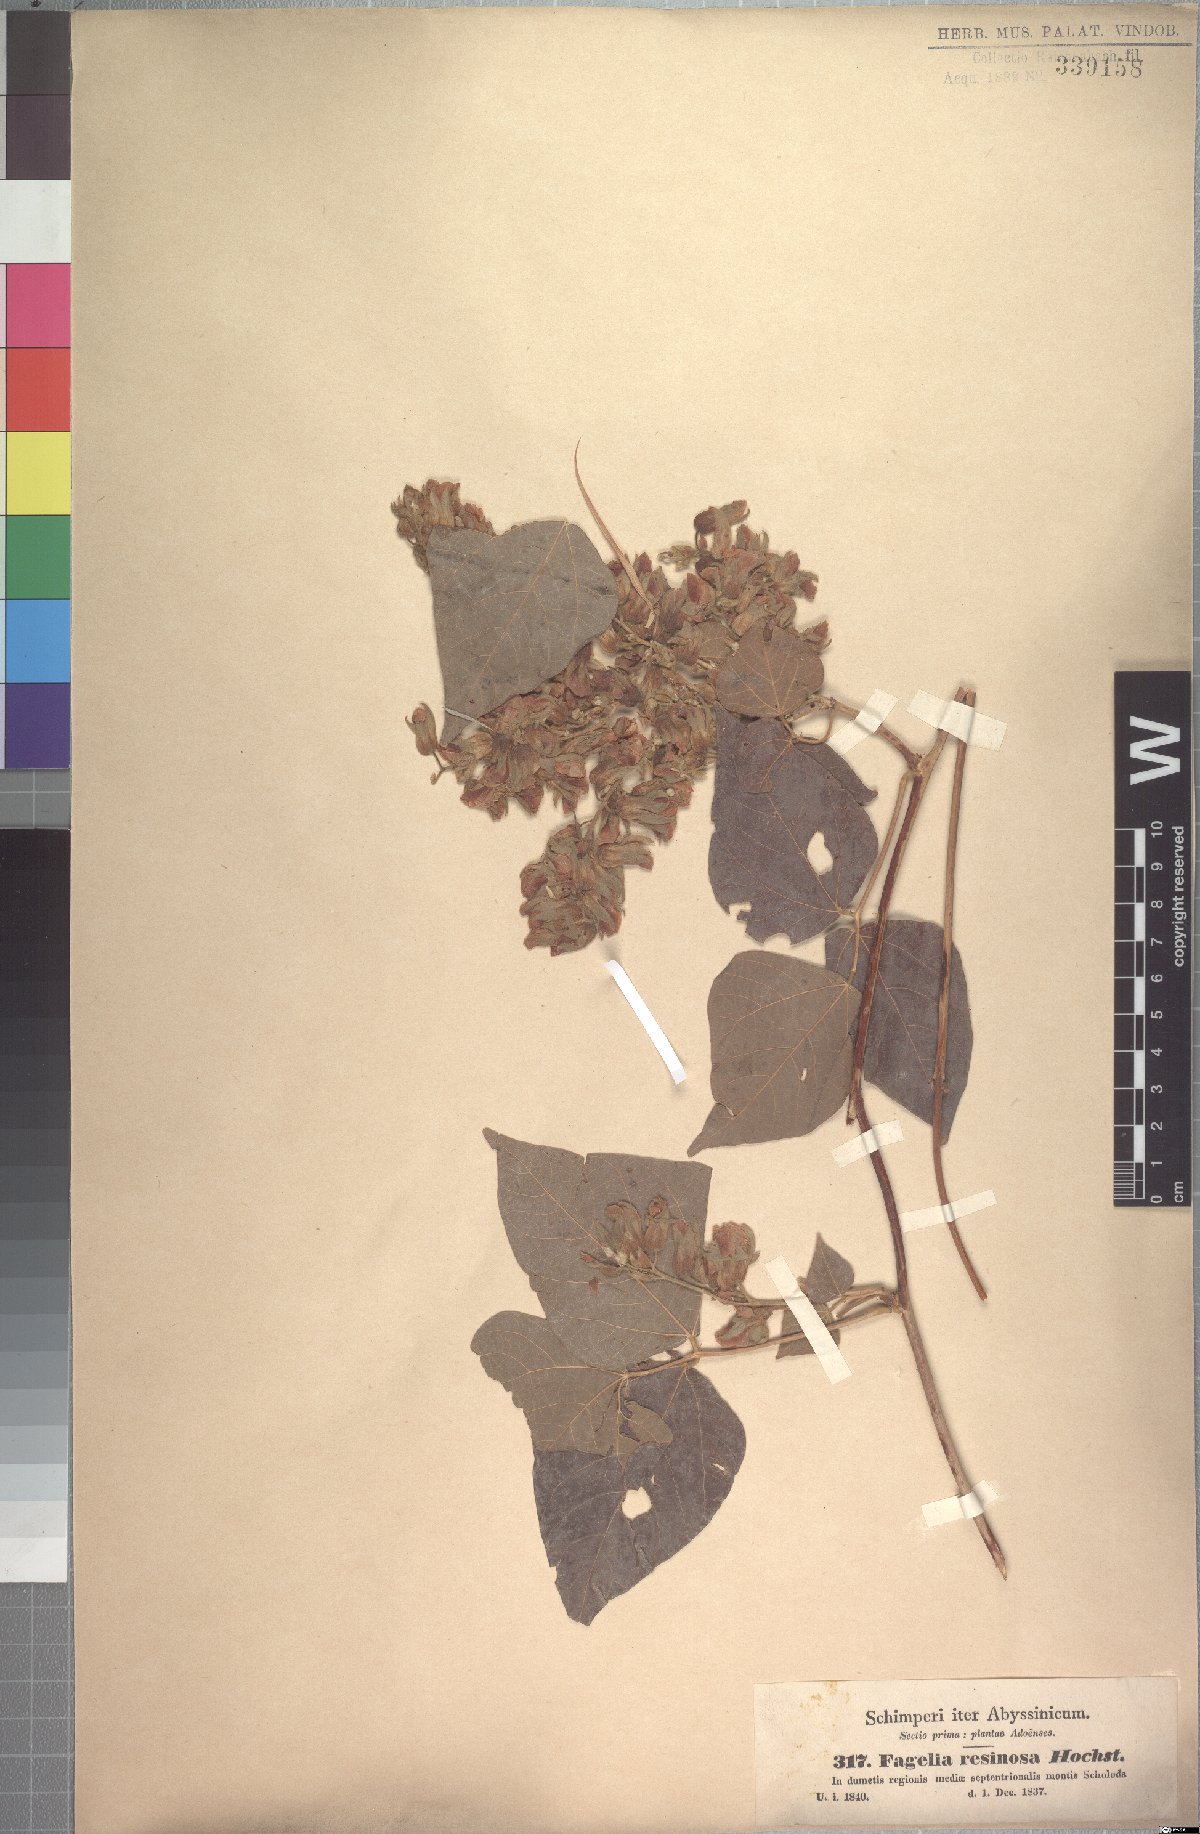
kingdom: Plantae
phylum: Tracheophyta
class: Magnoliopsida
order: Fabales
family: Fabaceae
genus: Rhynchosia
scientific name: Rhynchosia resinosa
